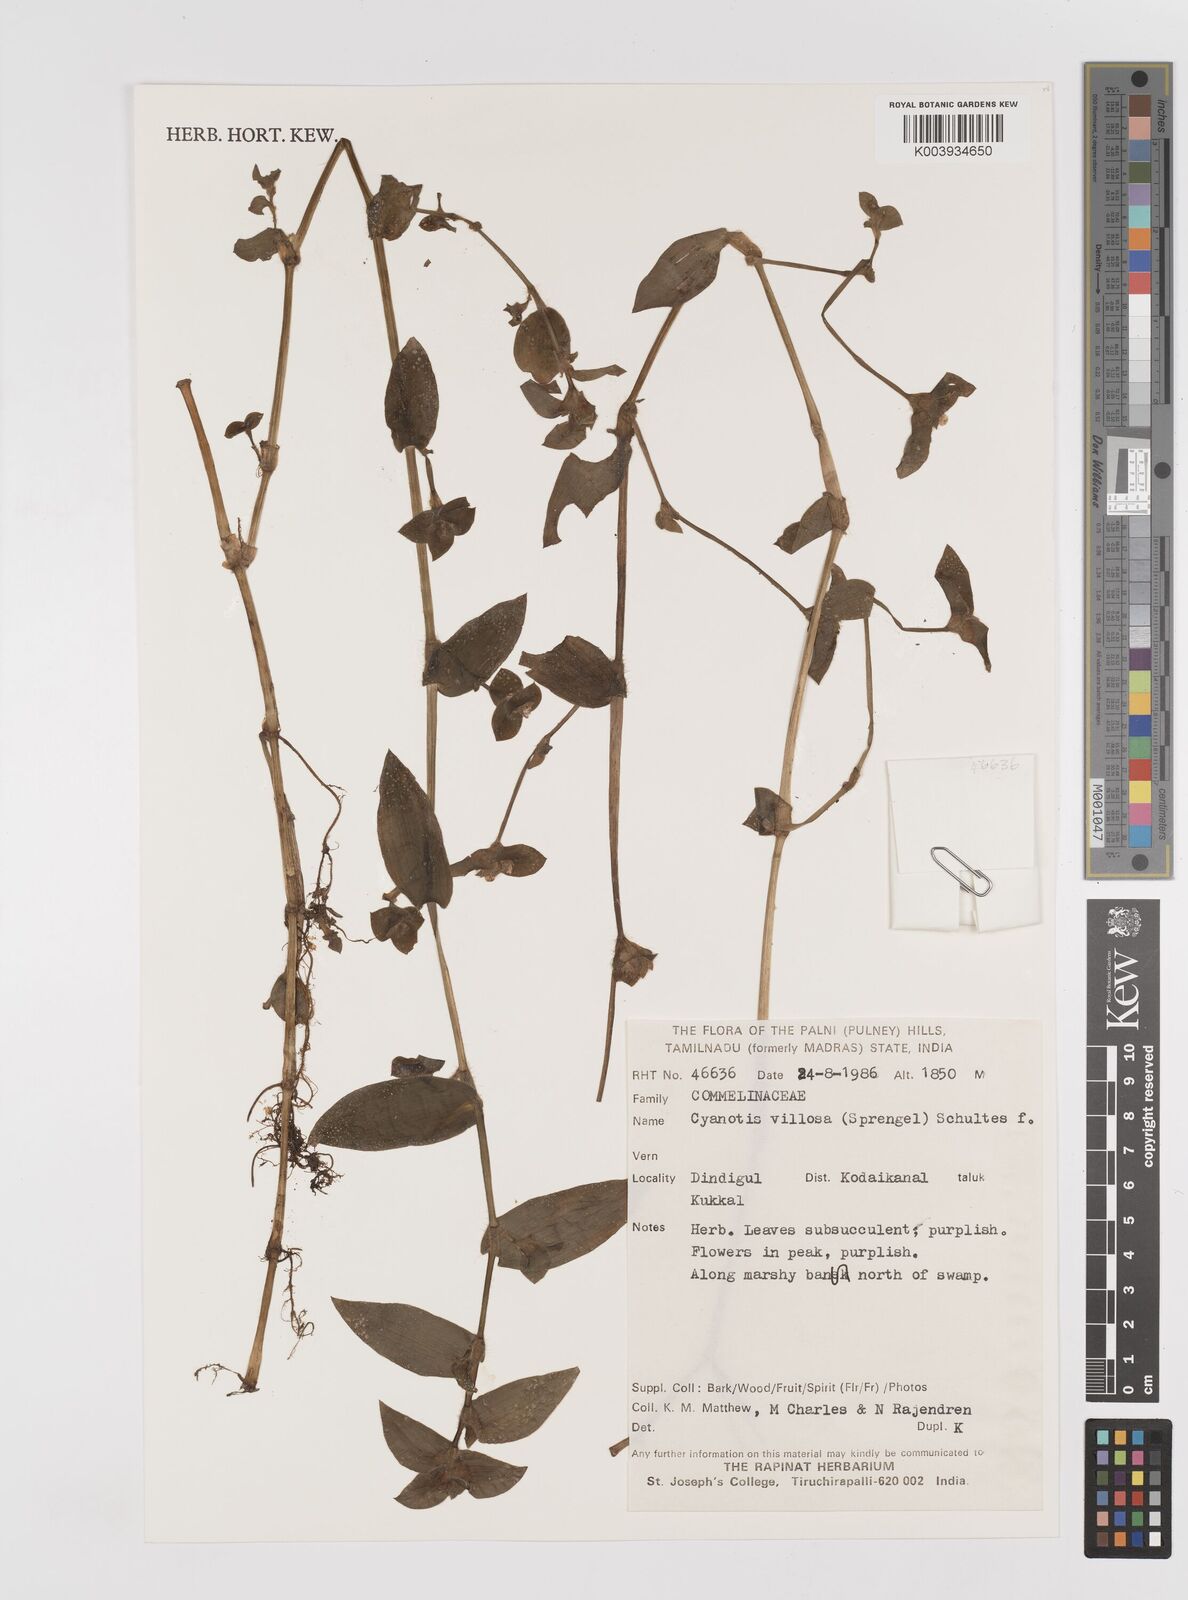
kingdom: Plantae
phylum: Tracheophyta
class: Liliopsida
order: Commelinales
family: Commelinaceae
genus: Cyanotis
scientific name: Cyanotis villosa
